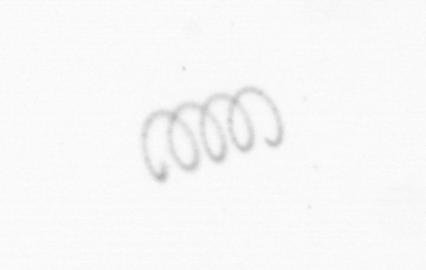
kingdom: Chromista
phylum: Ochrophyta
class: Bacillariophyceae
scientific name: Bacillariophyceae
